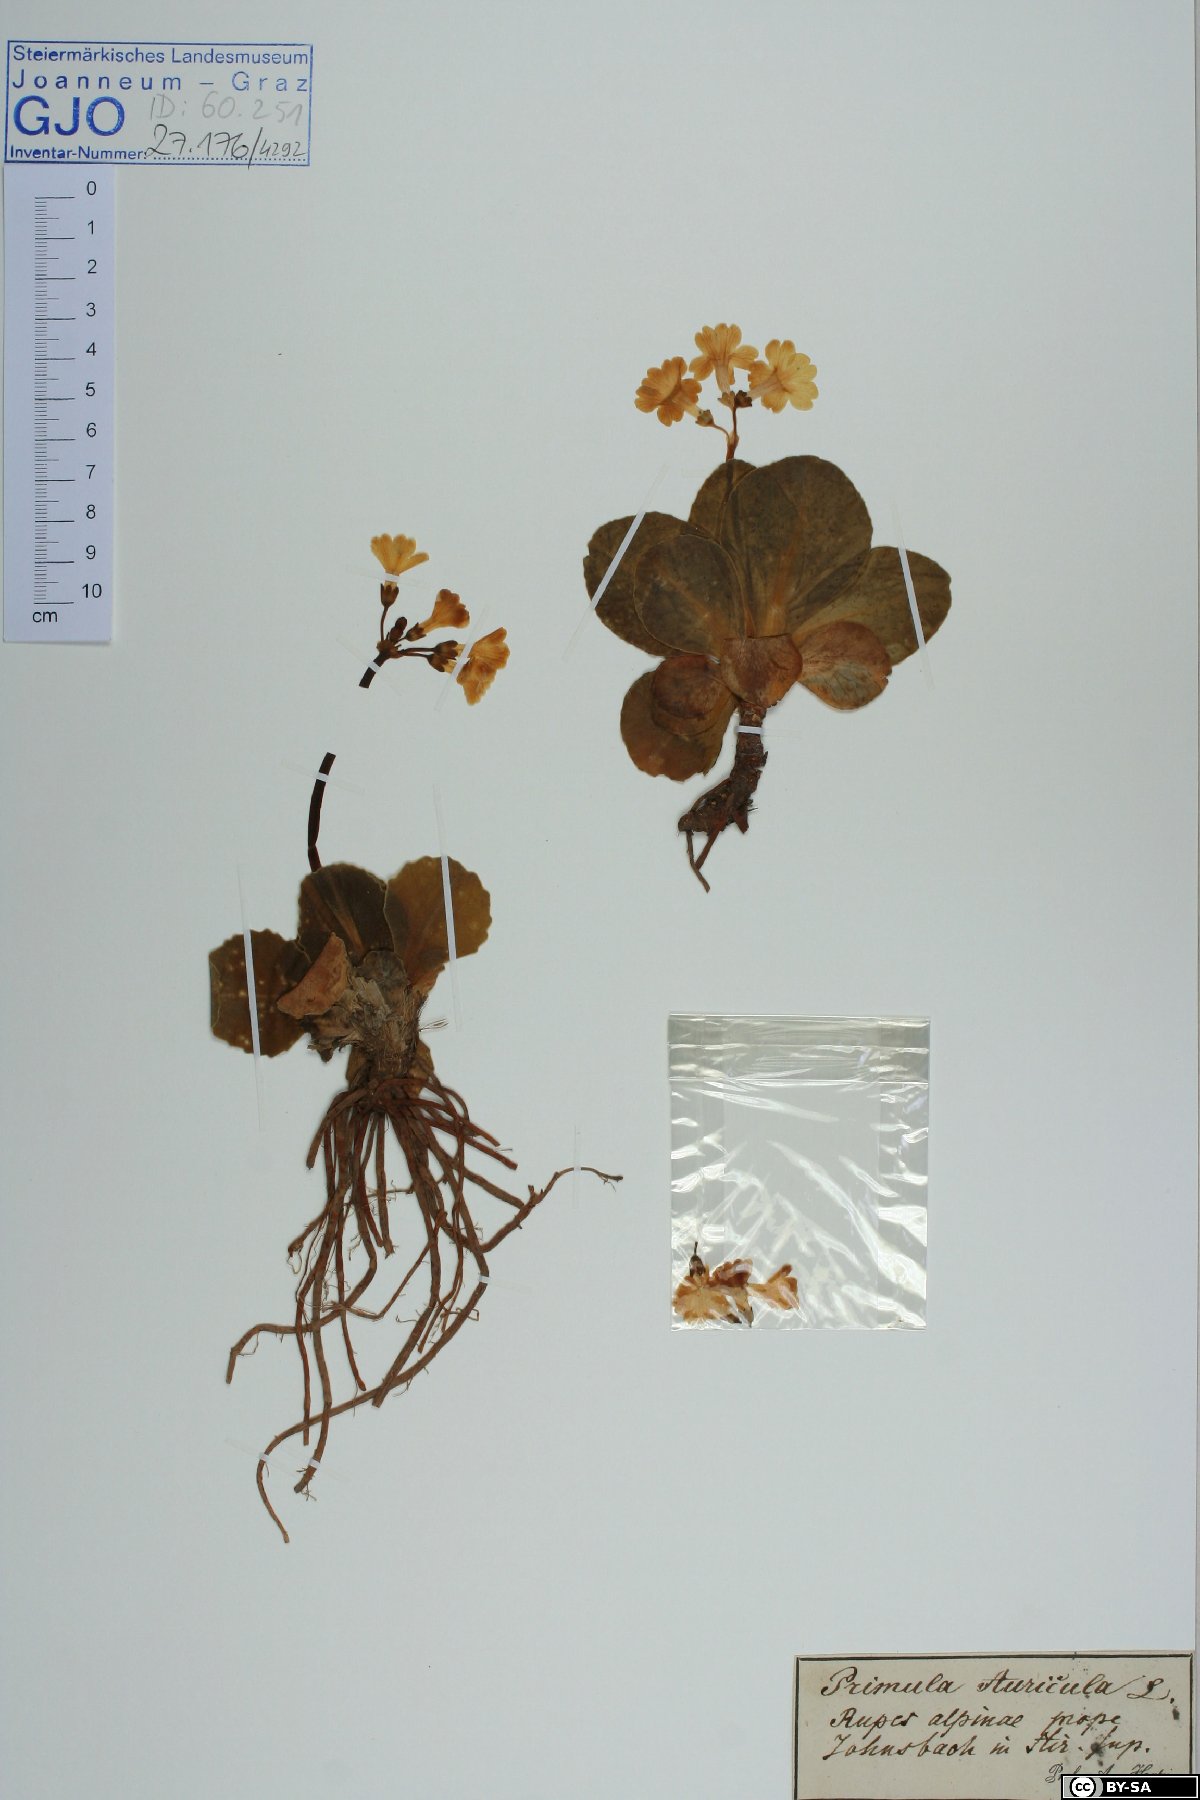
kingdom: Plantae
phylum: Tracheophyta
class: Magnoliopsida
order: Ericales
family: Primulaceae
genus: Primula
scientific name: Primula auricula
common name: Auricula
